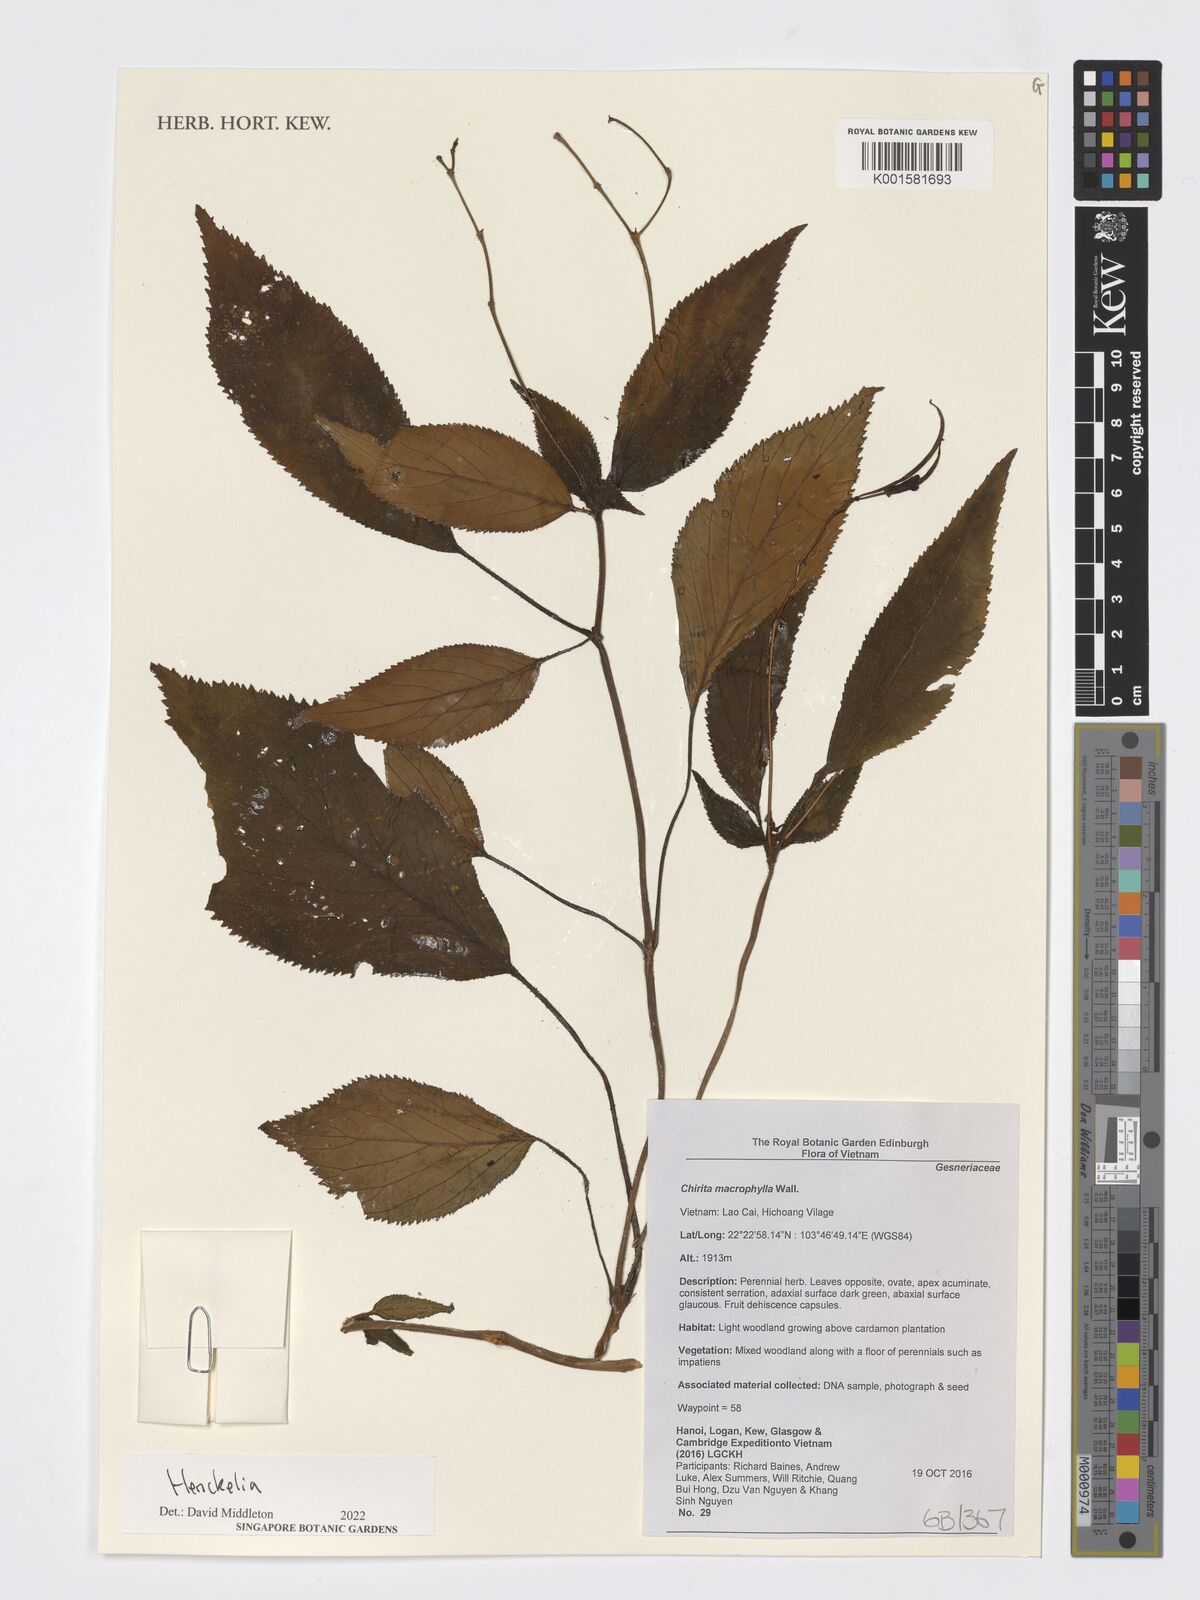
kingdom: Plantae
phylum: Tracheophyta
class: Magnoliopsida
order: Lamiales
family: Gesneriaceae
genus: Henckelia
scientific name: Henckelia
